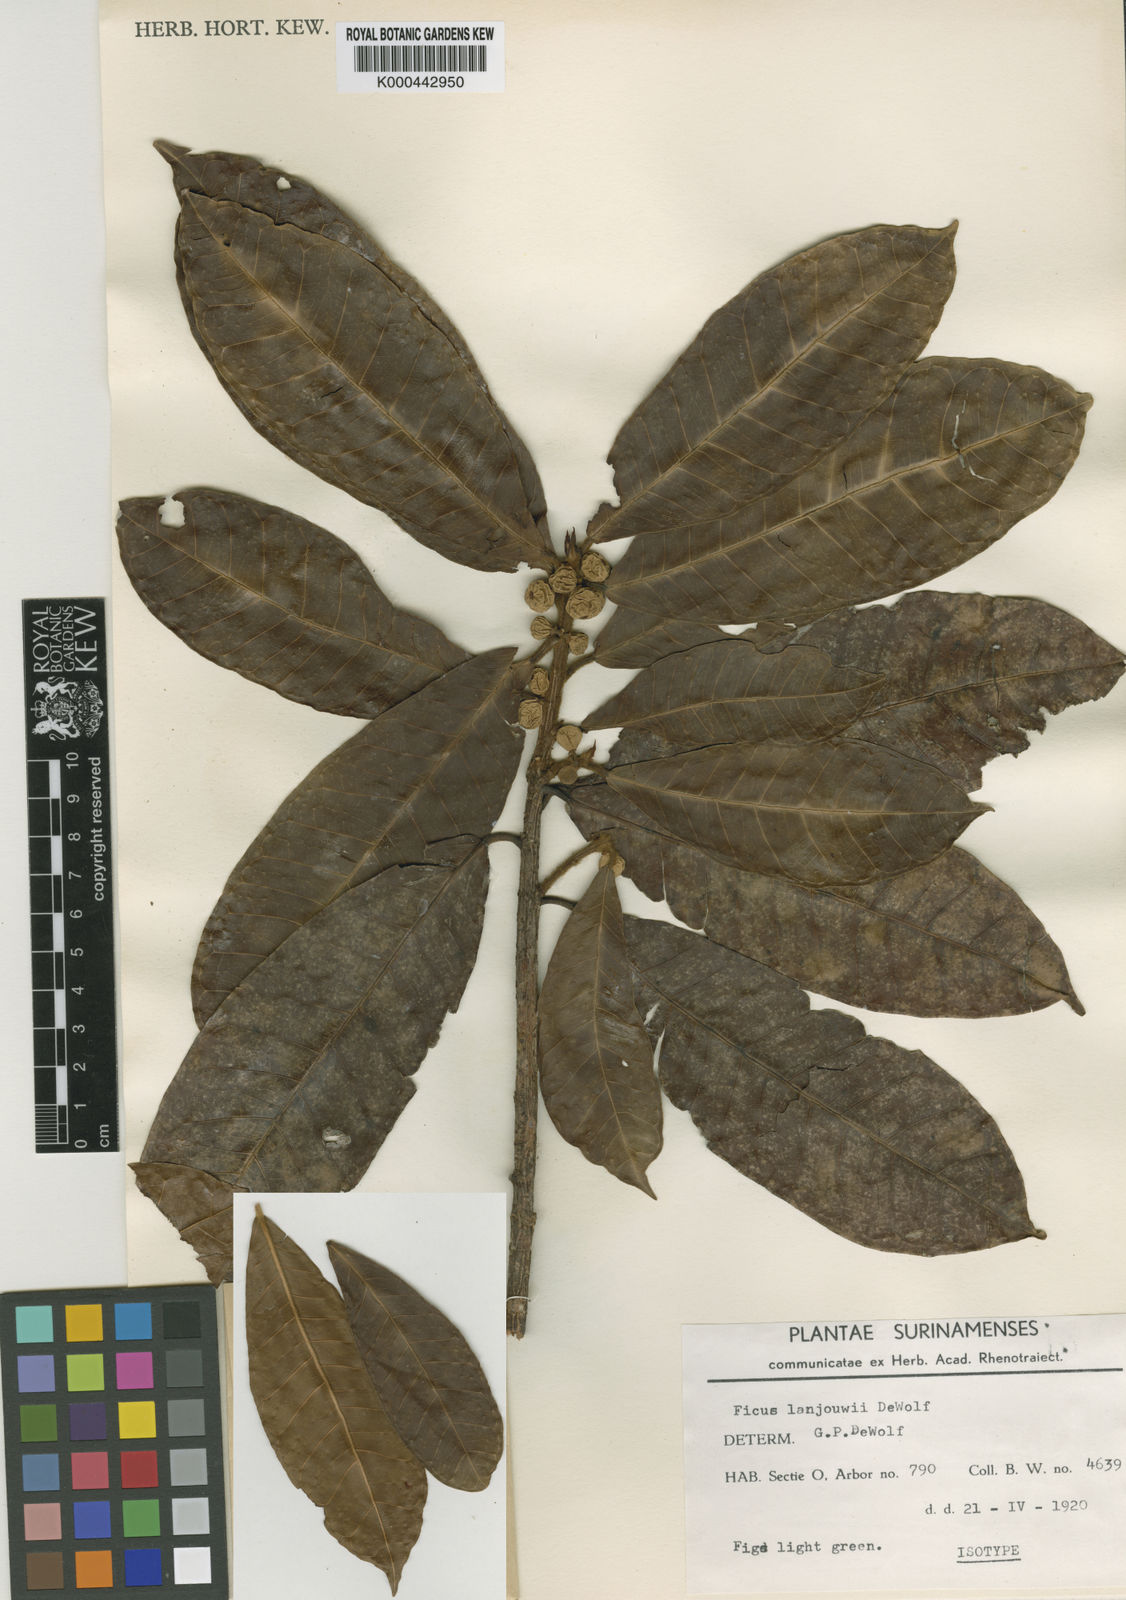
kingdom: Plantae
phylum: Tracheophyta
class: Magnoliopsida
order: Rosales
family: Moraceae
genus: Ficus
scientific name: Ficus maroniensis
